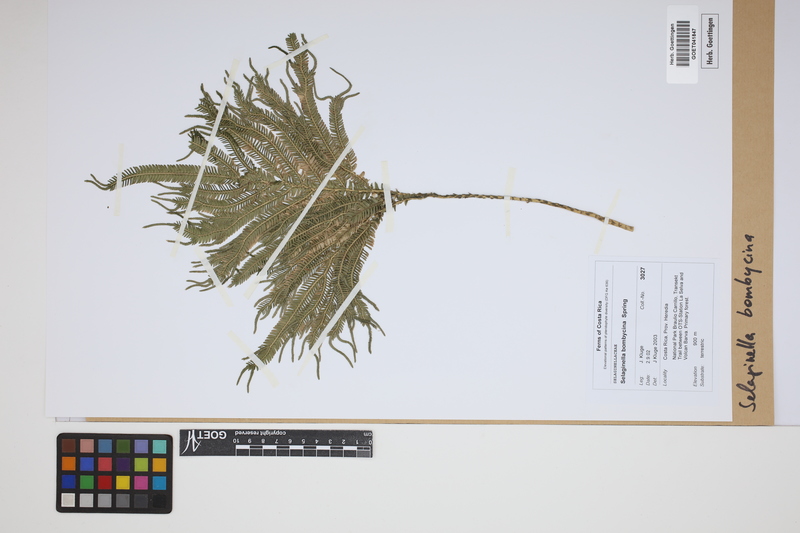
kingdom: Plantae
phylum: Tracheophyta
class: Lycopodiopsida
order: Selaginellales
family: Selaginellaceae
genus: Selaginella
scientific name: Selaginella bombycina
